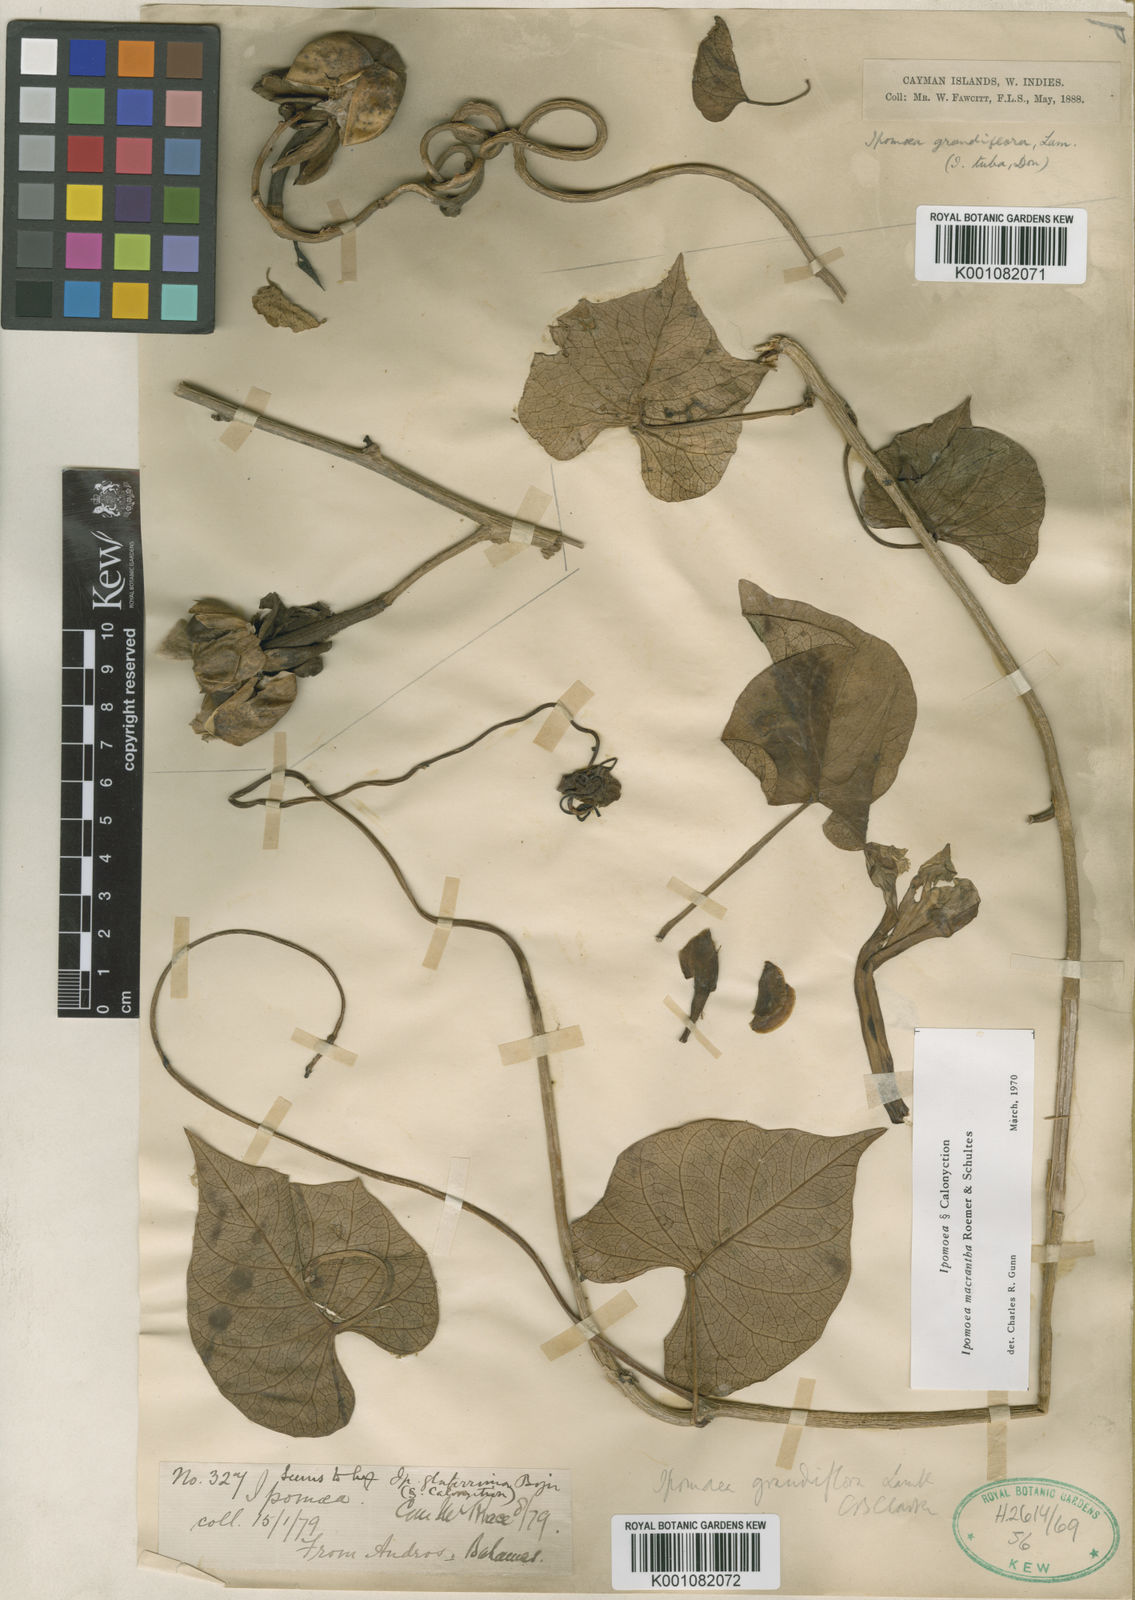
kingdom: Plantae
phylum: Tracheophyta
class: Magnoliopsida
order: Solanales
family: Convolvulaceae
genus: Ipomoea
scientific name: Ipomoea violacea
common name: Beach moonflower
